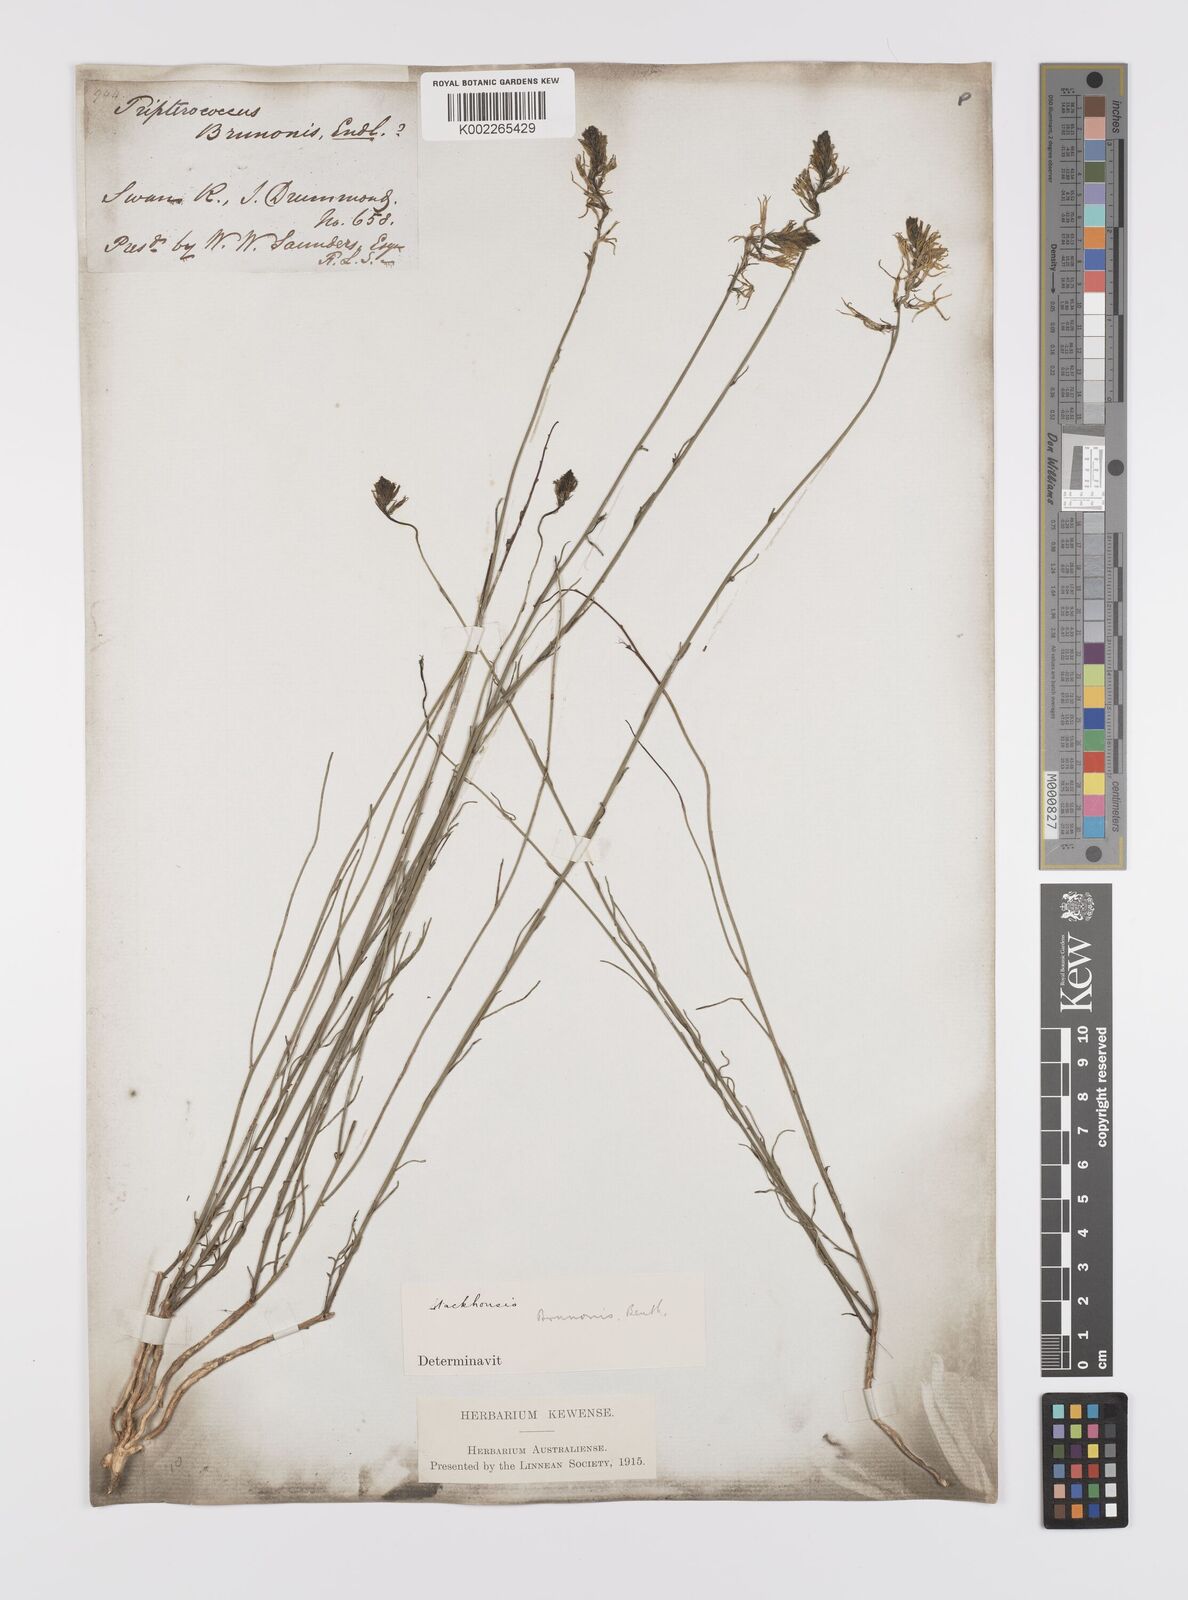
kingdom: Plantae
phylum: Tracheophyta
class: Magnoliopsida
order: Celastrales
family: Celastraceae
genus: Tripterococcus
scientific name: Tripterococcus brunonis
